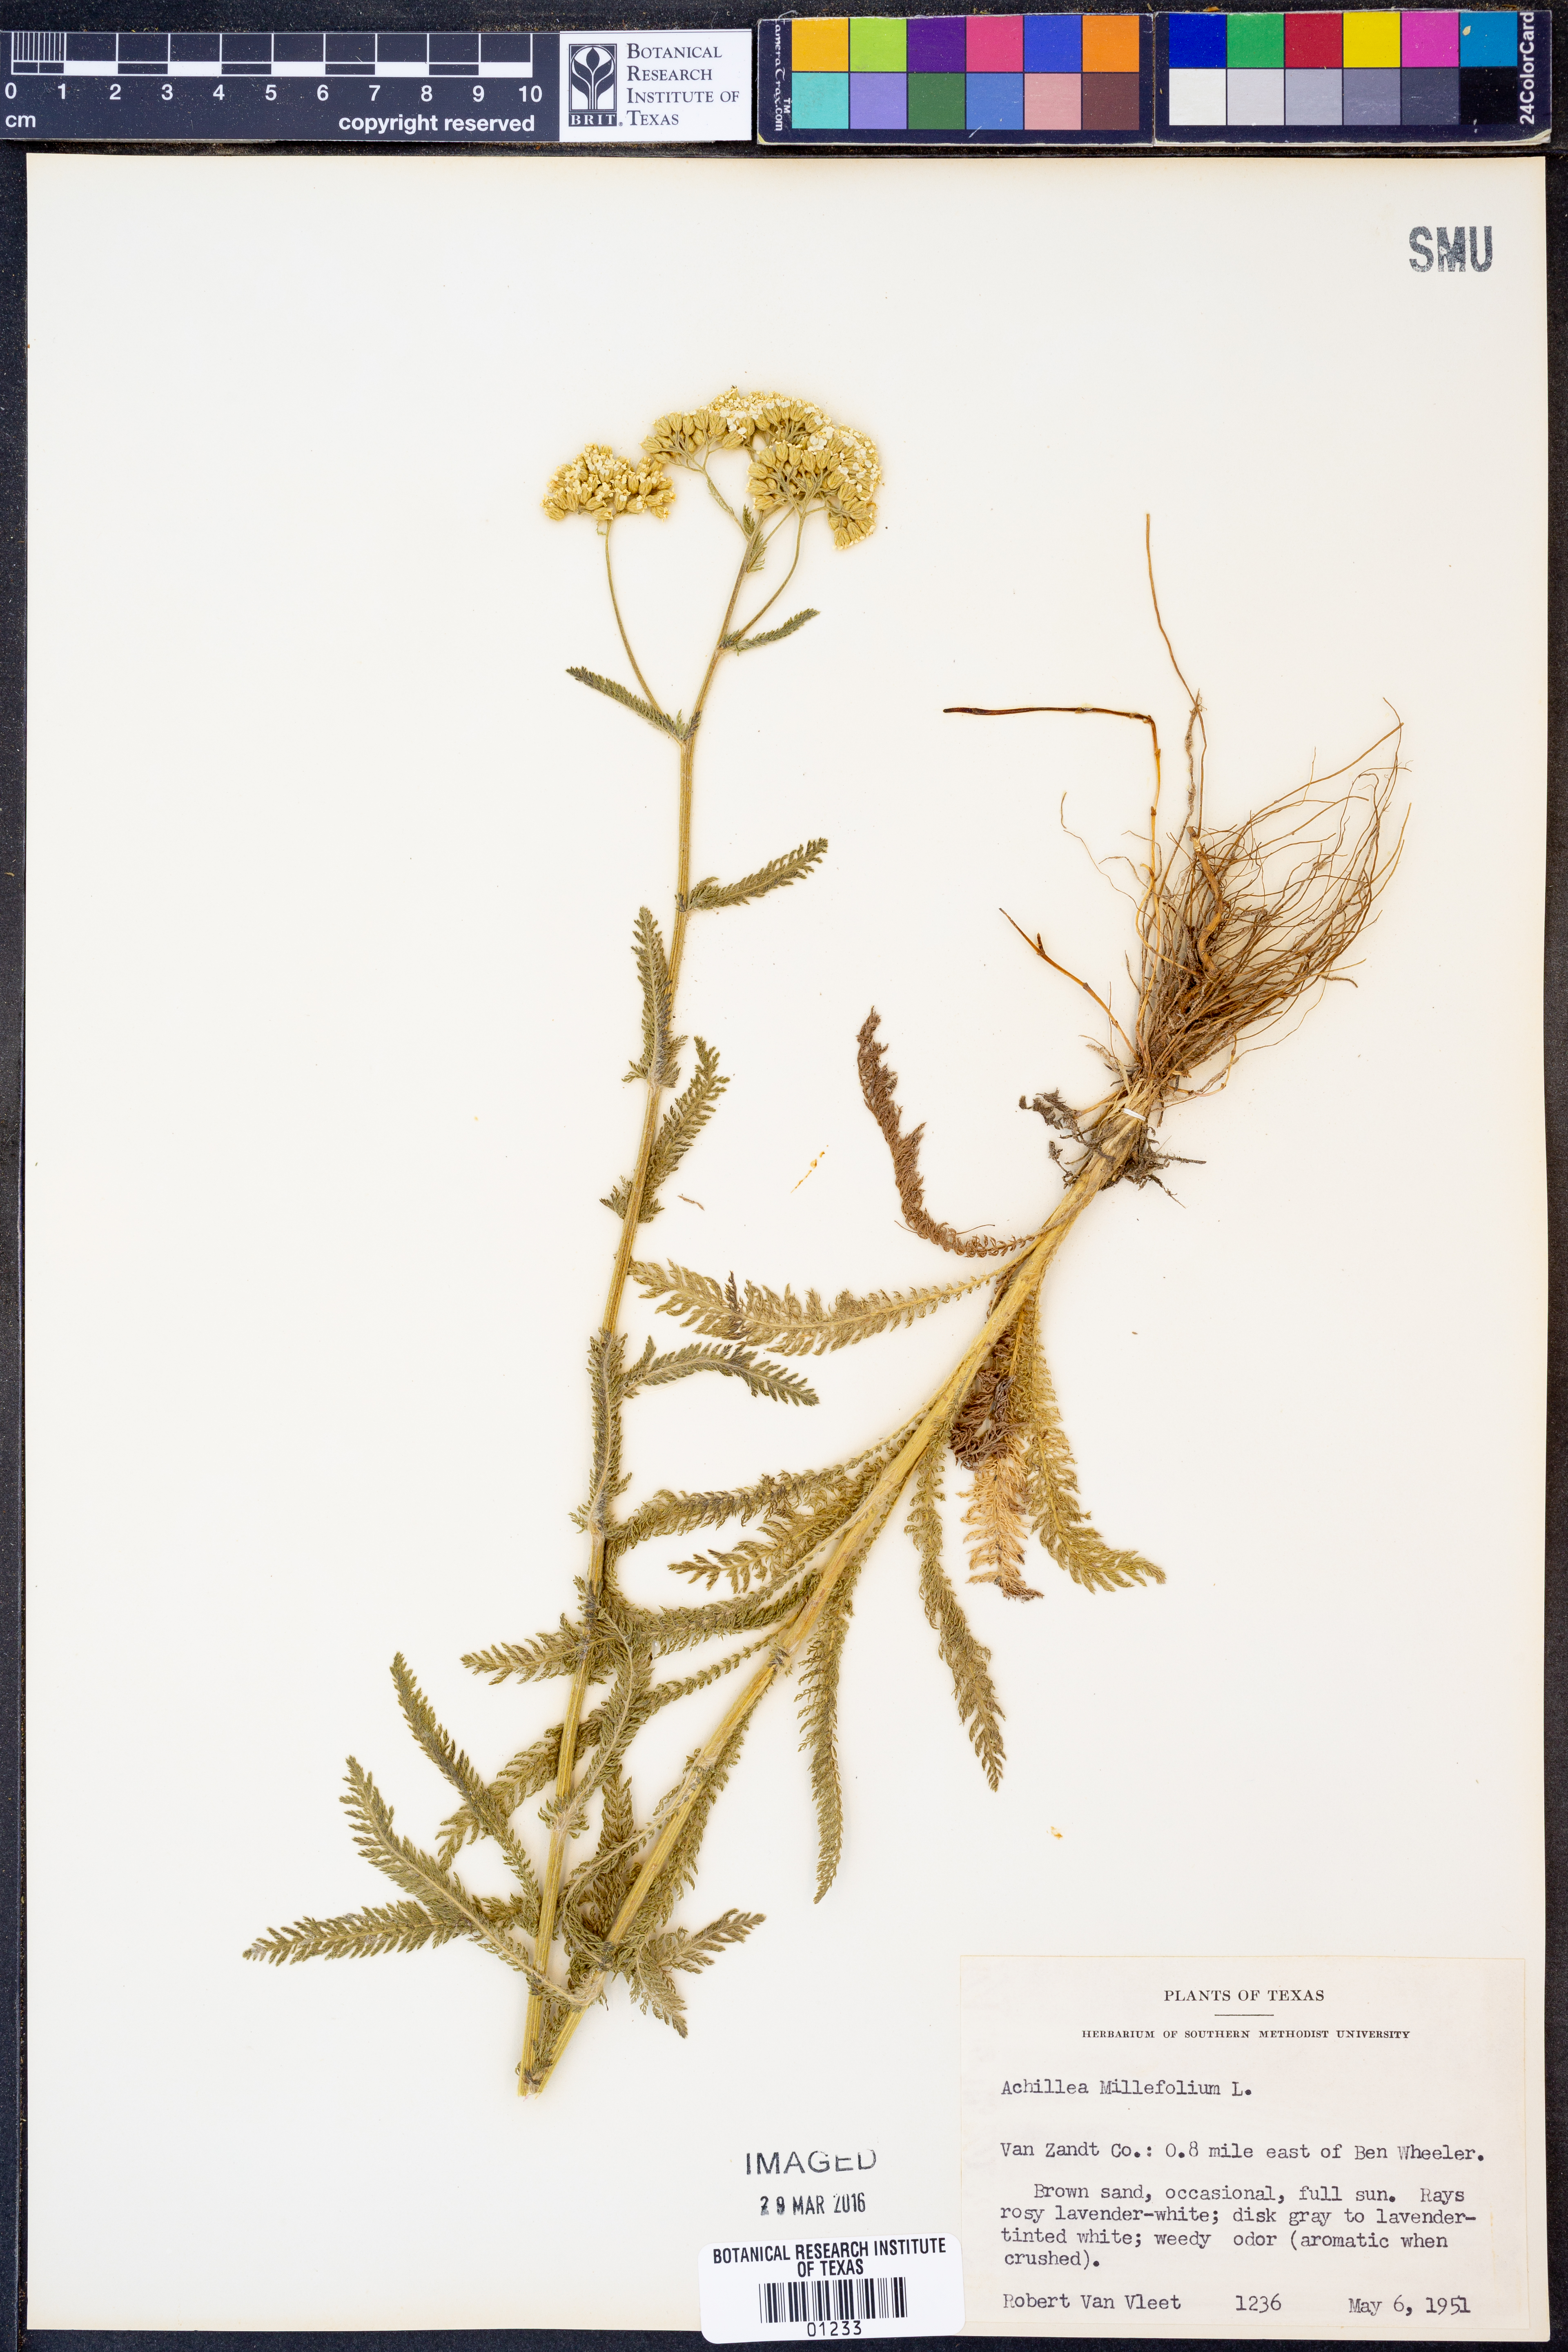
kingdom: Plantae
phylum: Tracheophyta
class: Magnoliopsida
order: Asterales
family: Asteraceae
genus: Achillea
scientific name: Achillea millefolium
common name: Yarrow
